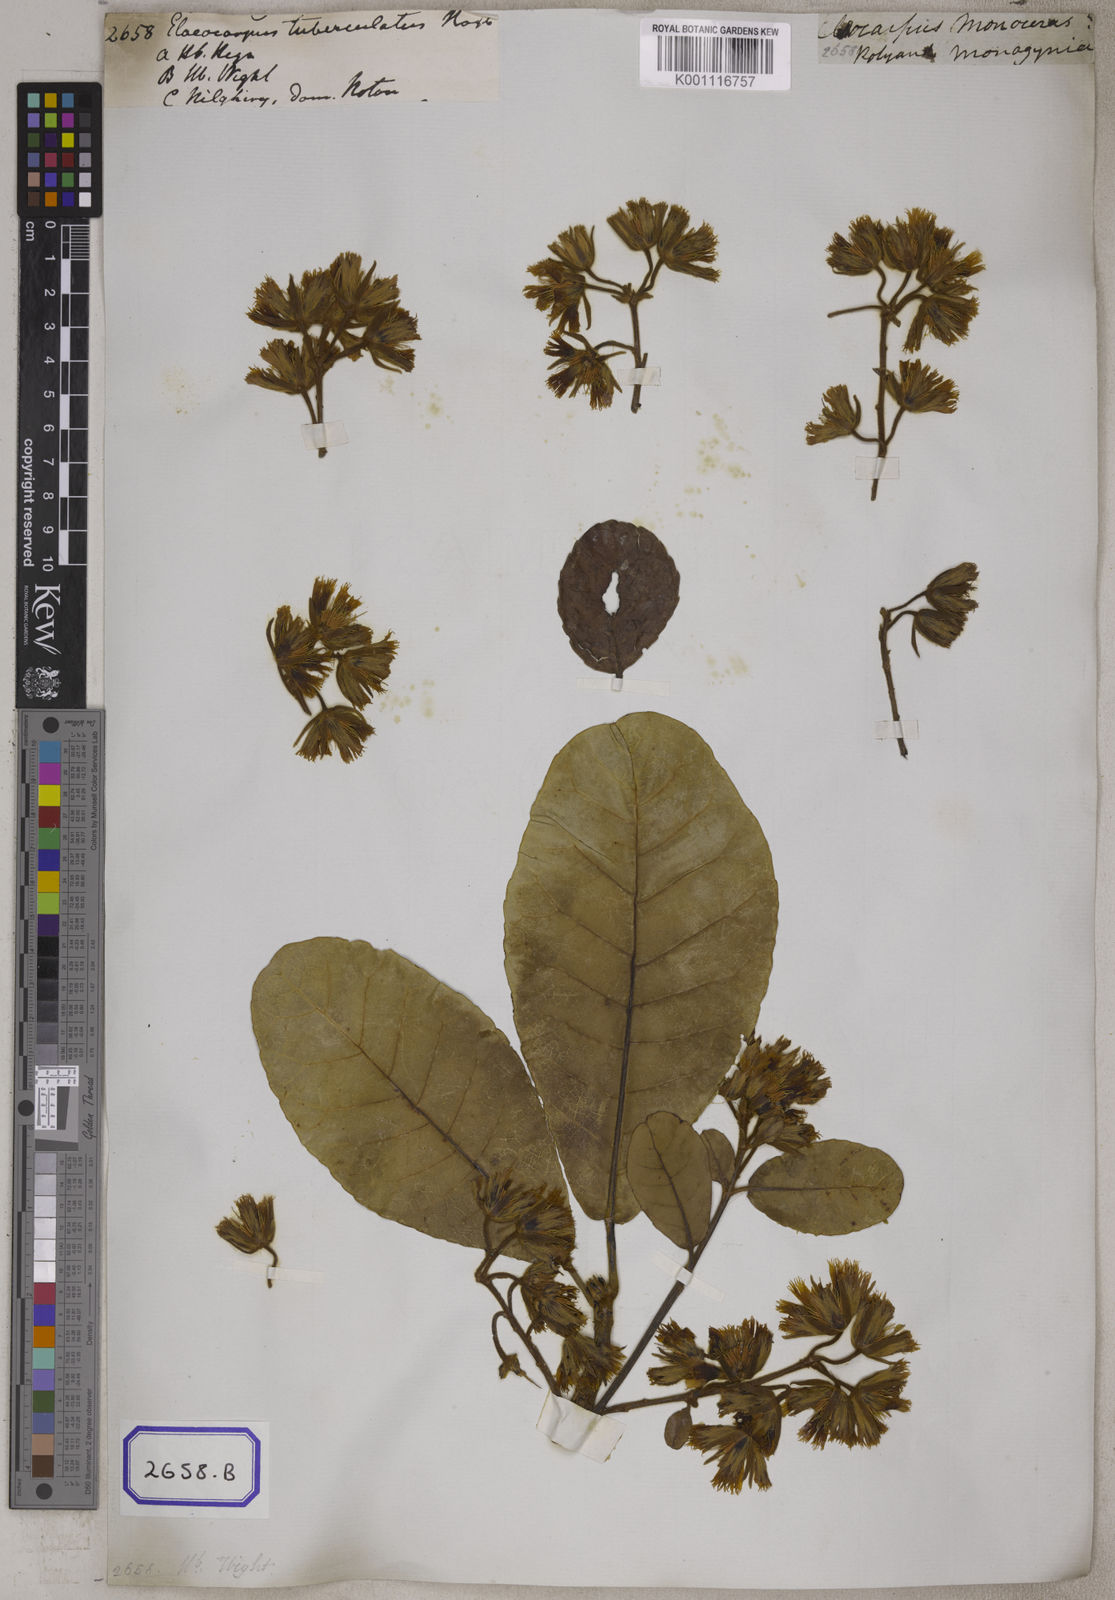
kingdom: Plantae
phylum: Tracheophyta
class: Magnoliopsida
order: Oxalidales
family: Elaeocarpaceae
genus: Elaeocarpus
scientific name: Elaeocarpus tuberculatus
